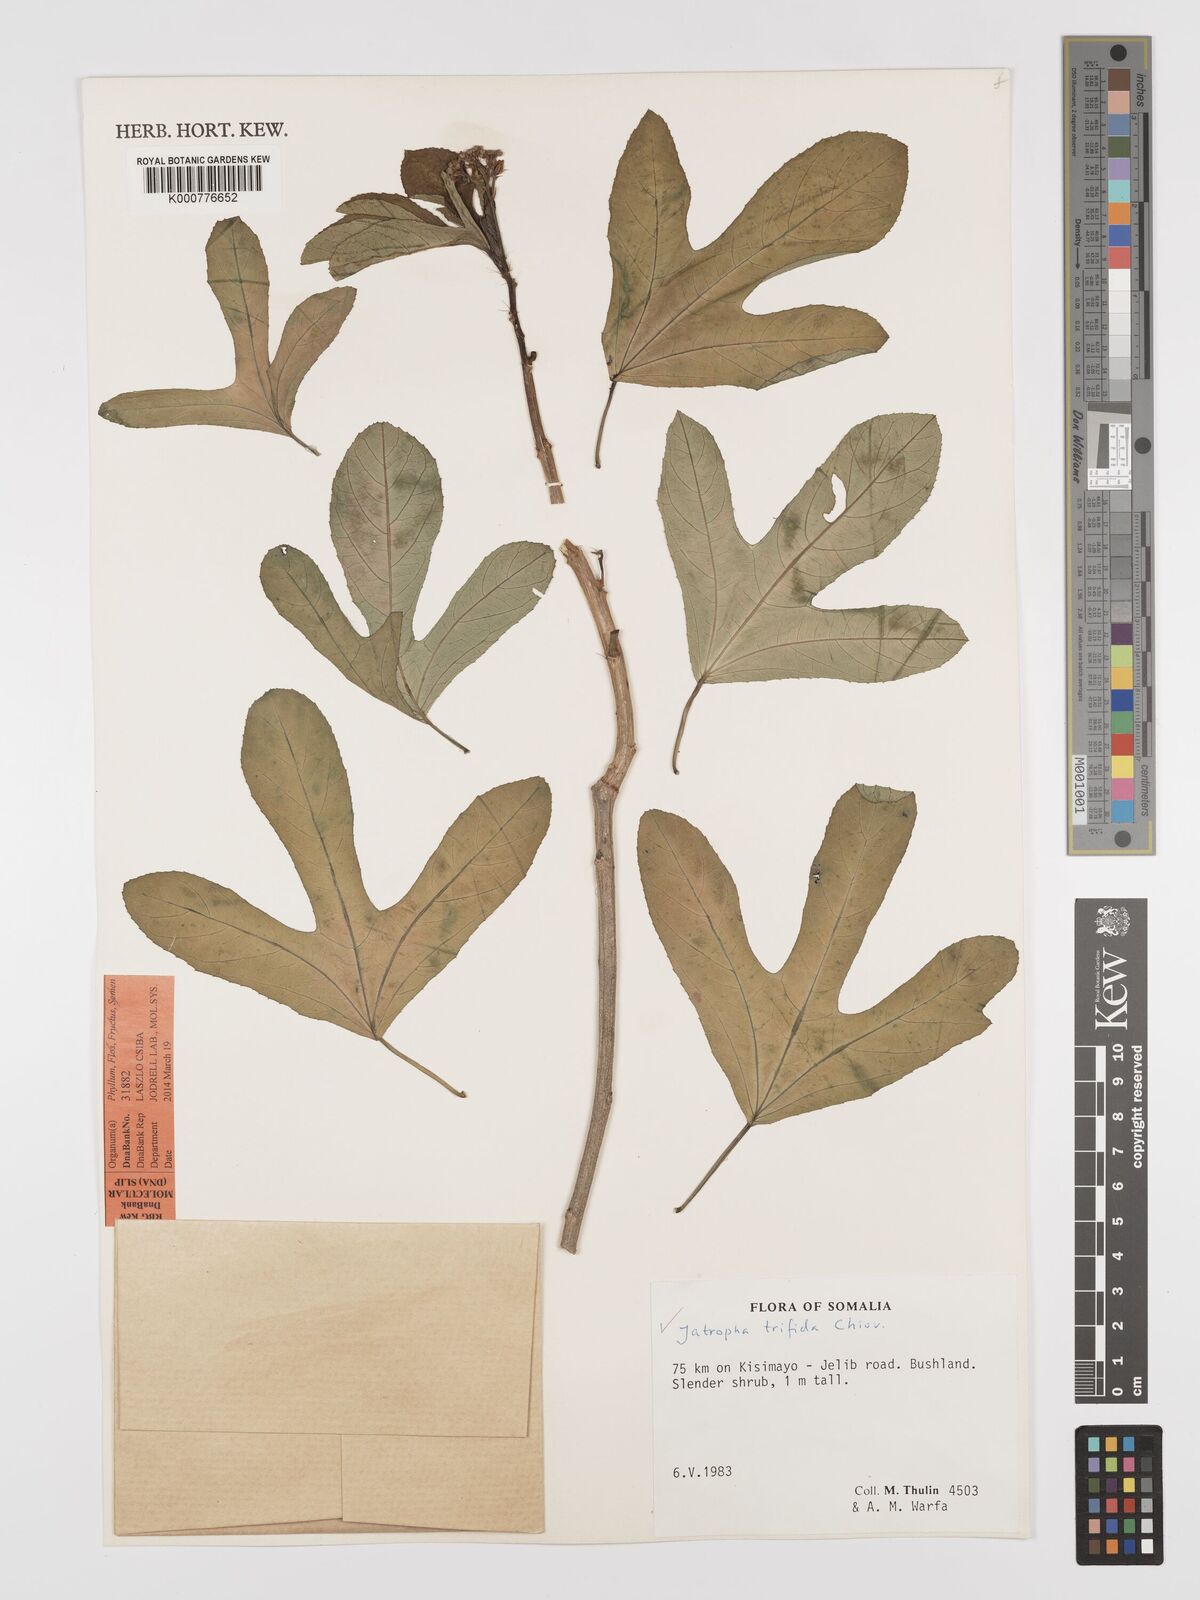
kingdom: Plantae
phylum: Tracheophyta
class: Magnoliopsida
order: Malpighiales
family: Euphorbiaceae
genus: Jatropha
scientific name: Jatropha trifida
